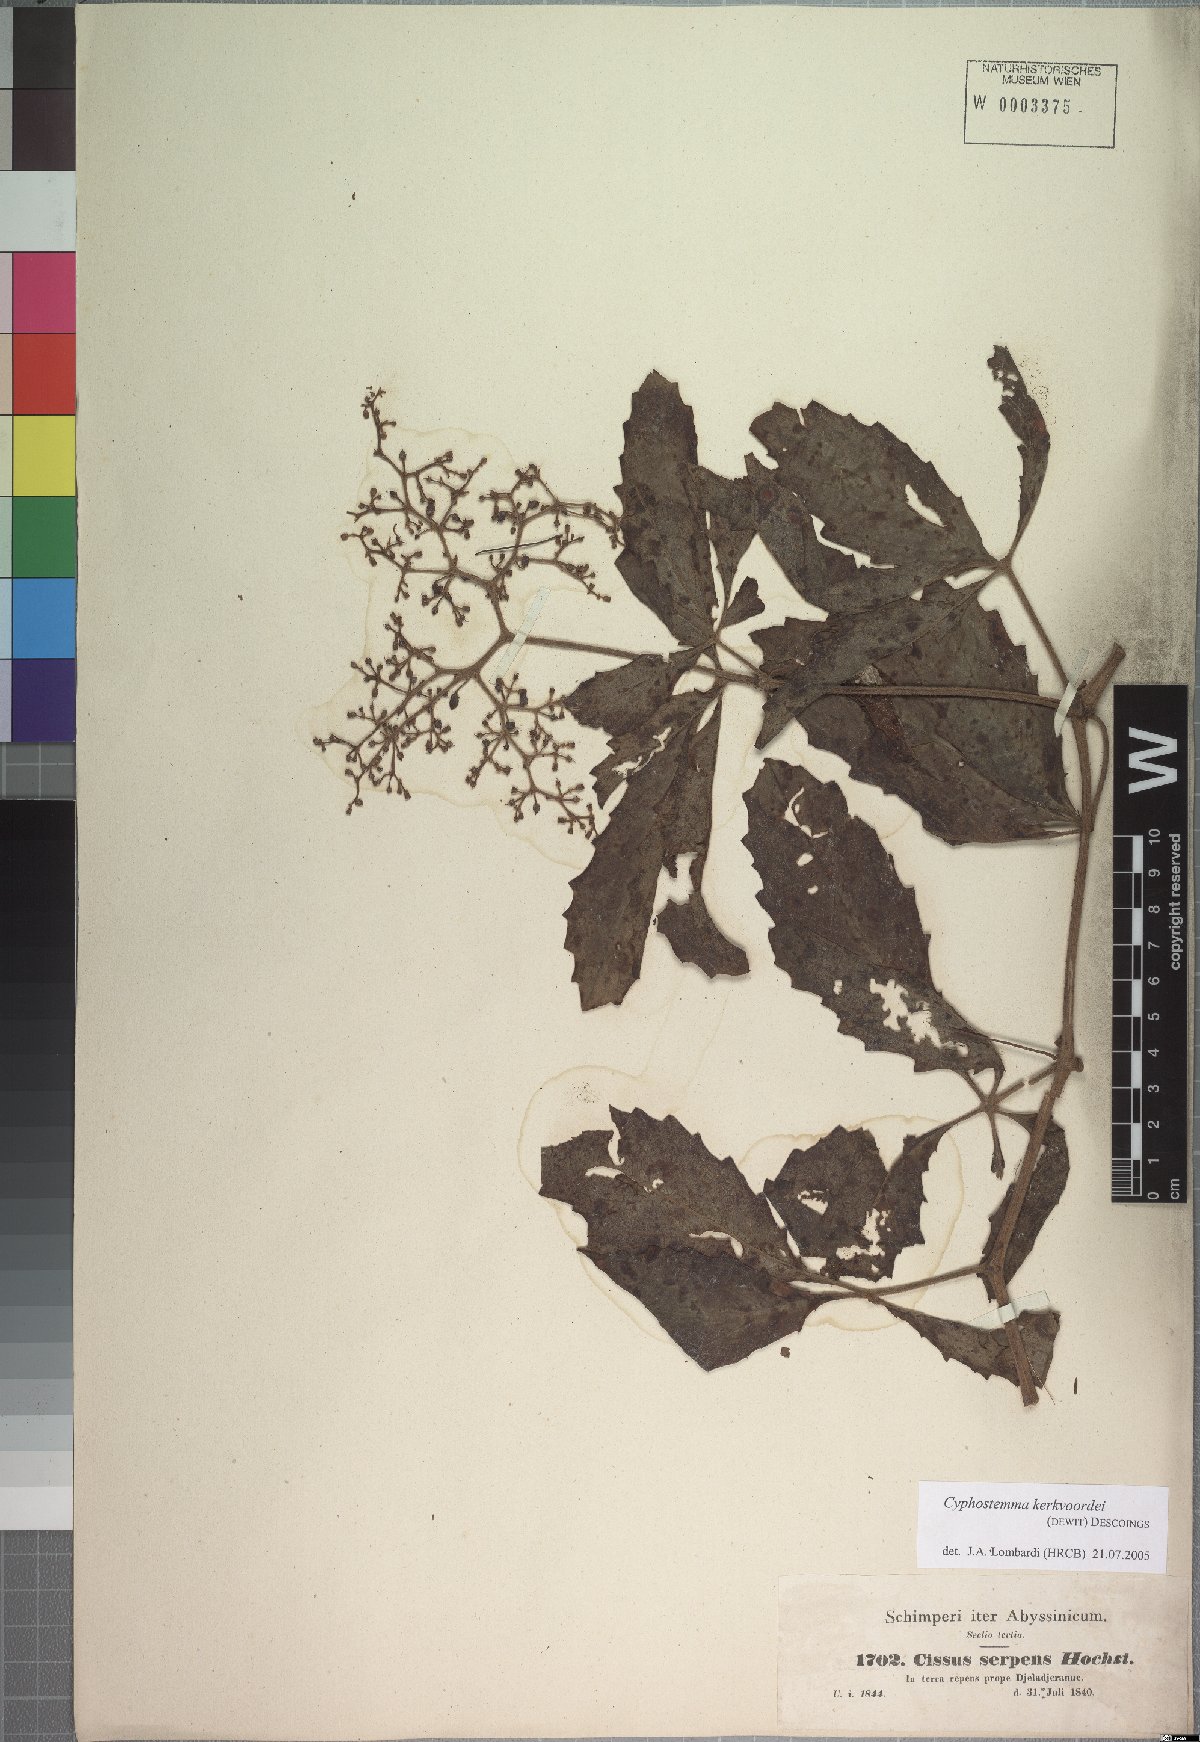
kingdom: Plantae
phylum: Tracheophyta
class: Magnoliopsida
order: Vitales
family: Vitaceae
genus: Cyphostemma
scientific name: Cyphostemma serpens
